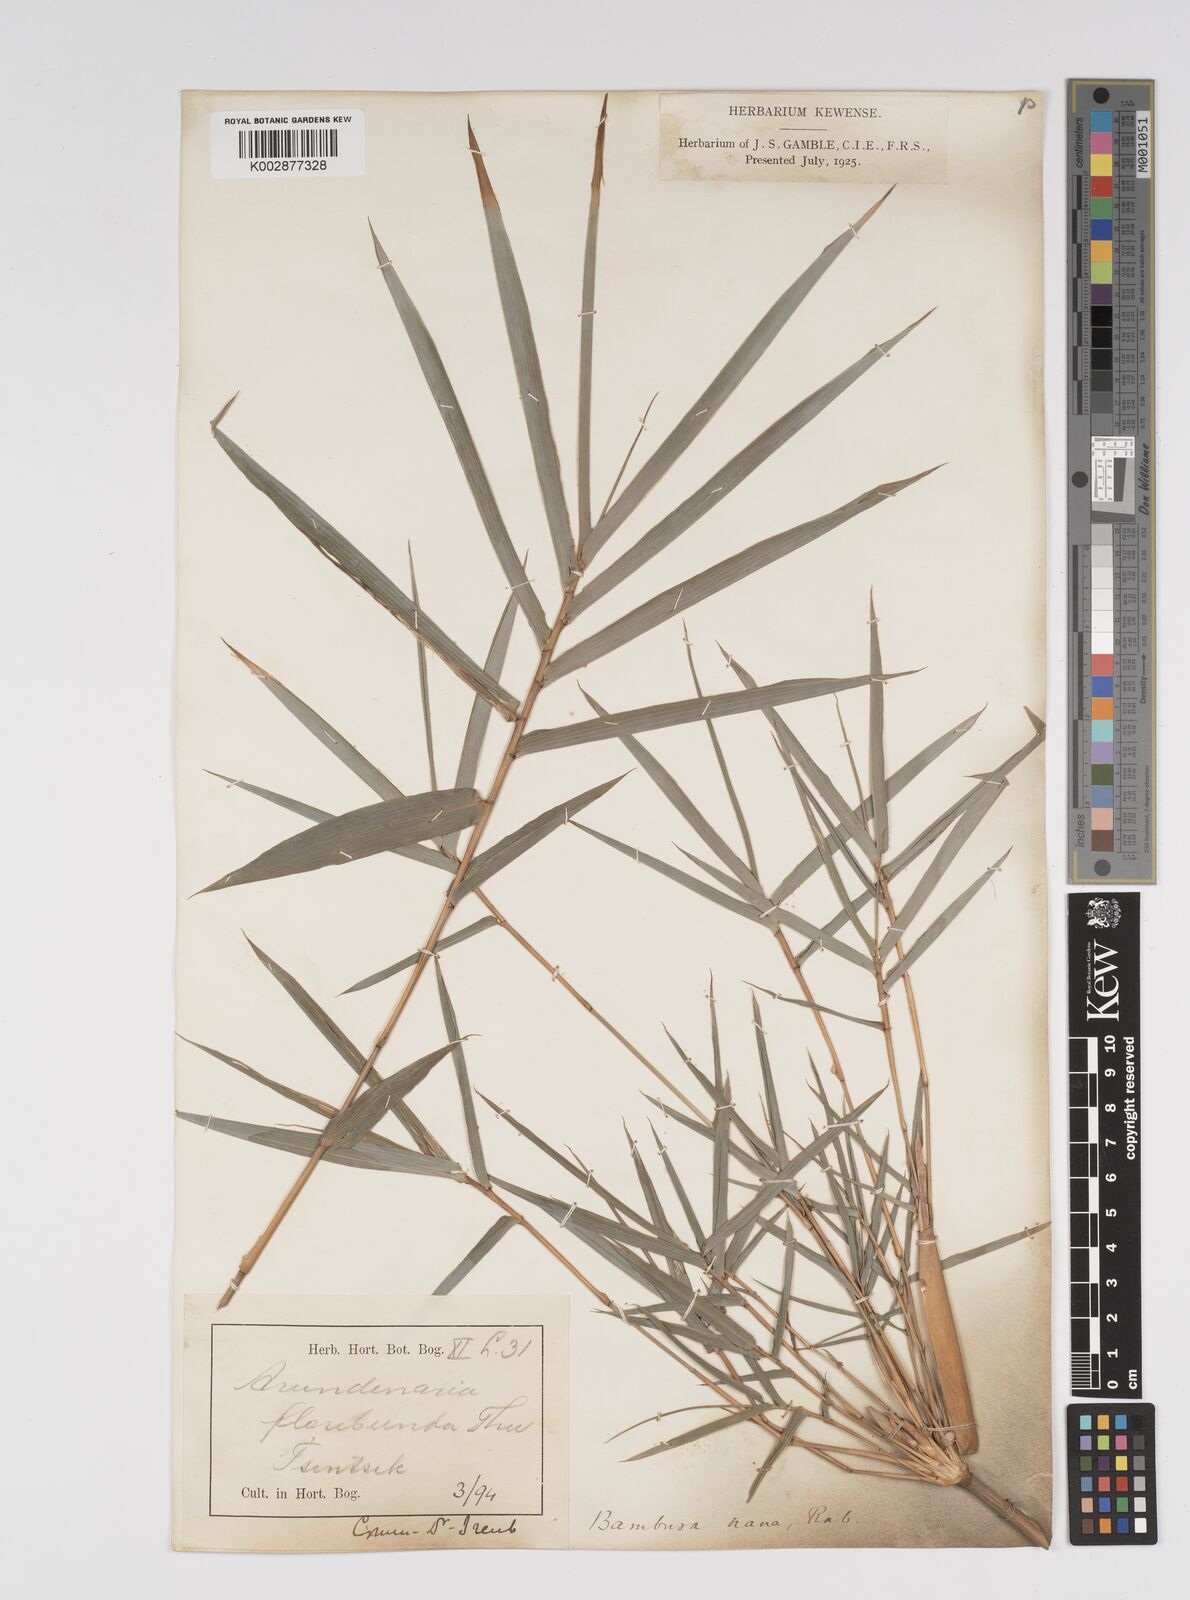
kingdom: Plantae
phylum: Tracheophyta
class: Liliopsida
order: Poales
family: Poaceae
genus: Bambusa
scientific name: Bambusa multiplex
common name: Hedge bamboo
